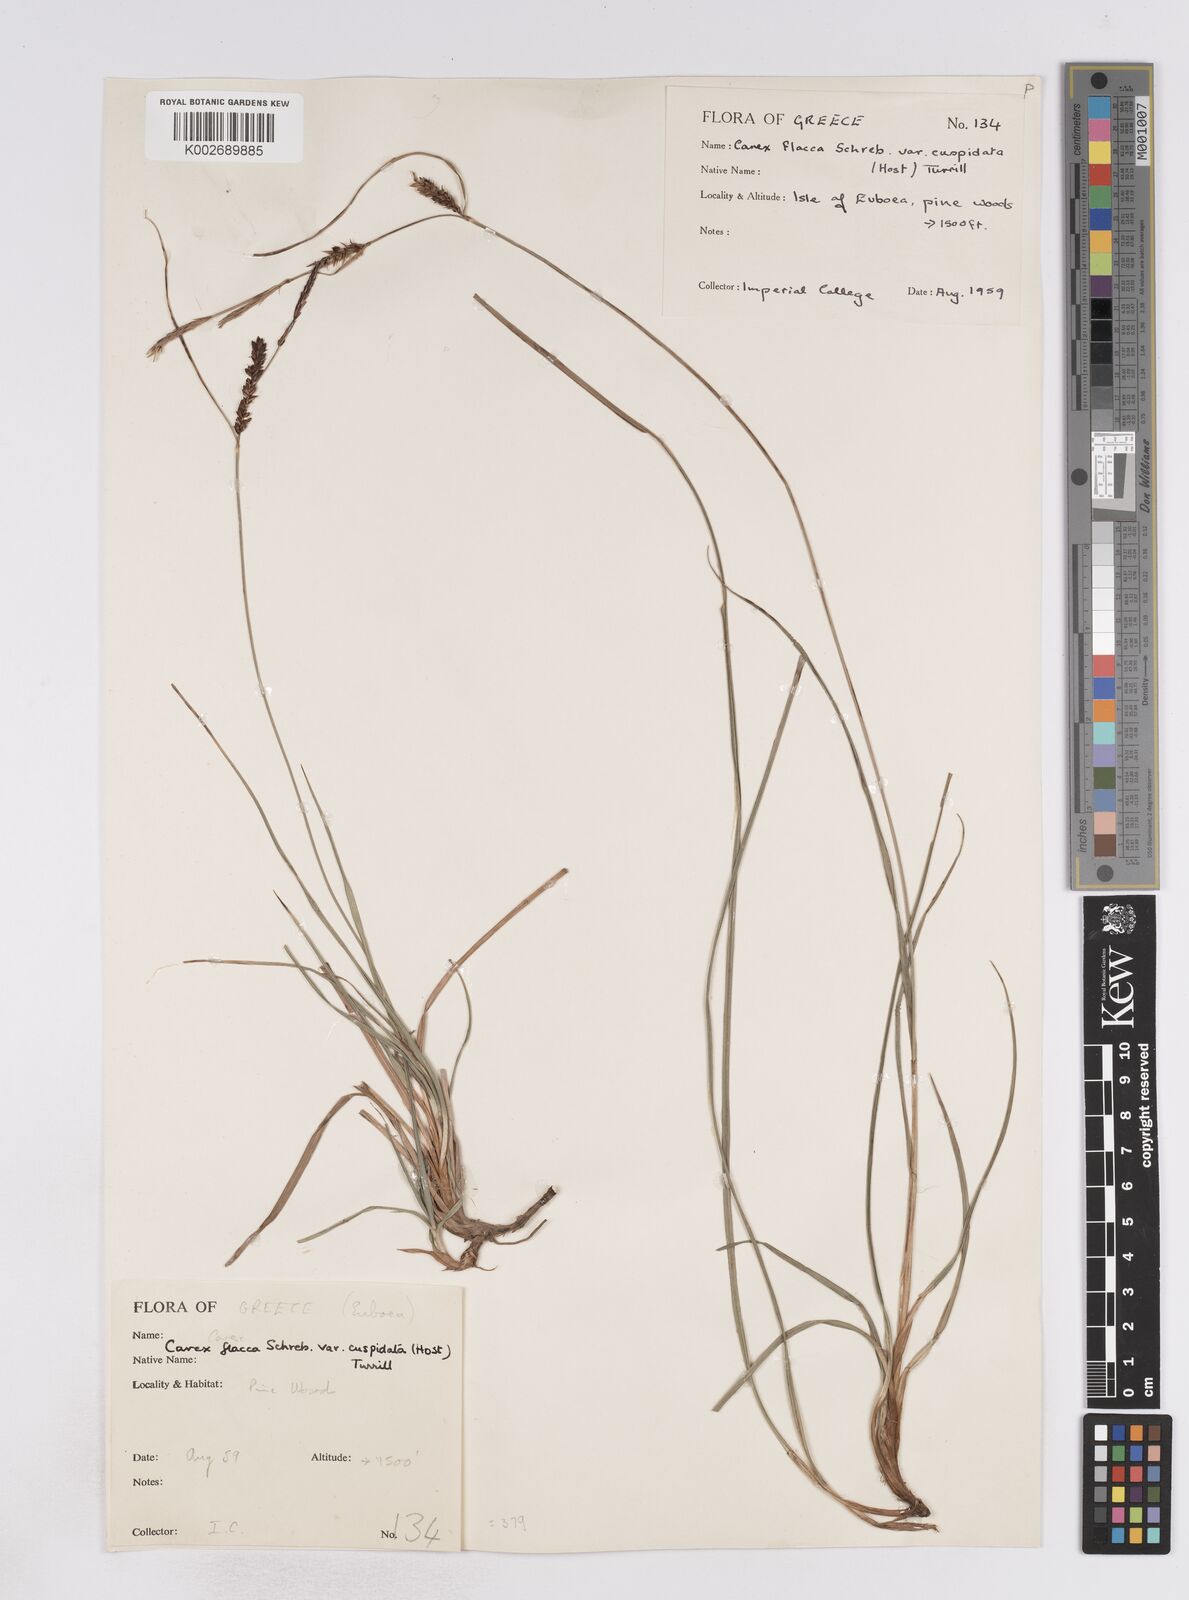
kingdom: Plantae
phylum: Tracheophyta
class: Liliopsida
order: Poales
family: Cyperaceae
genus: Carex
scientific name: Carex flacca
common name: Glaucous sedge
